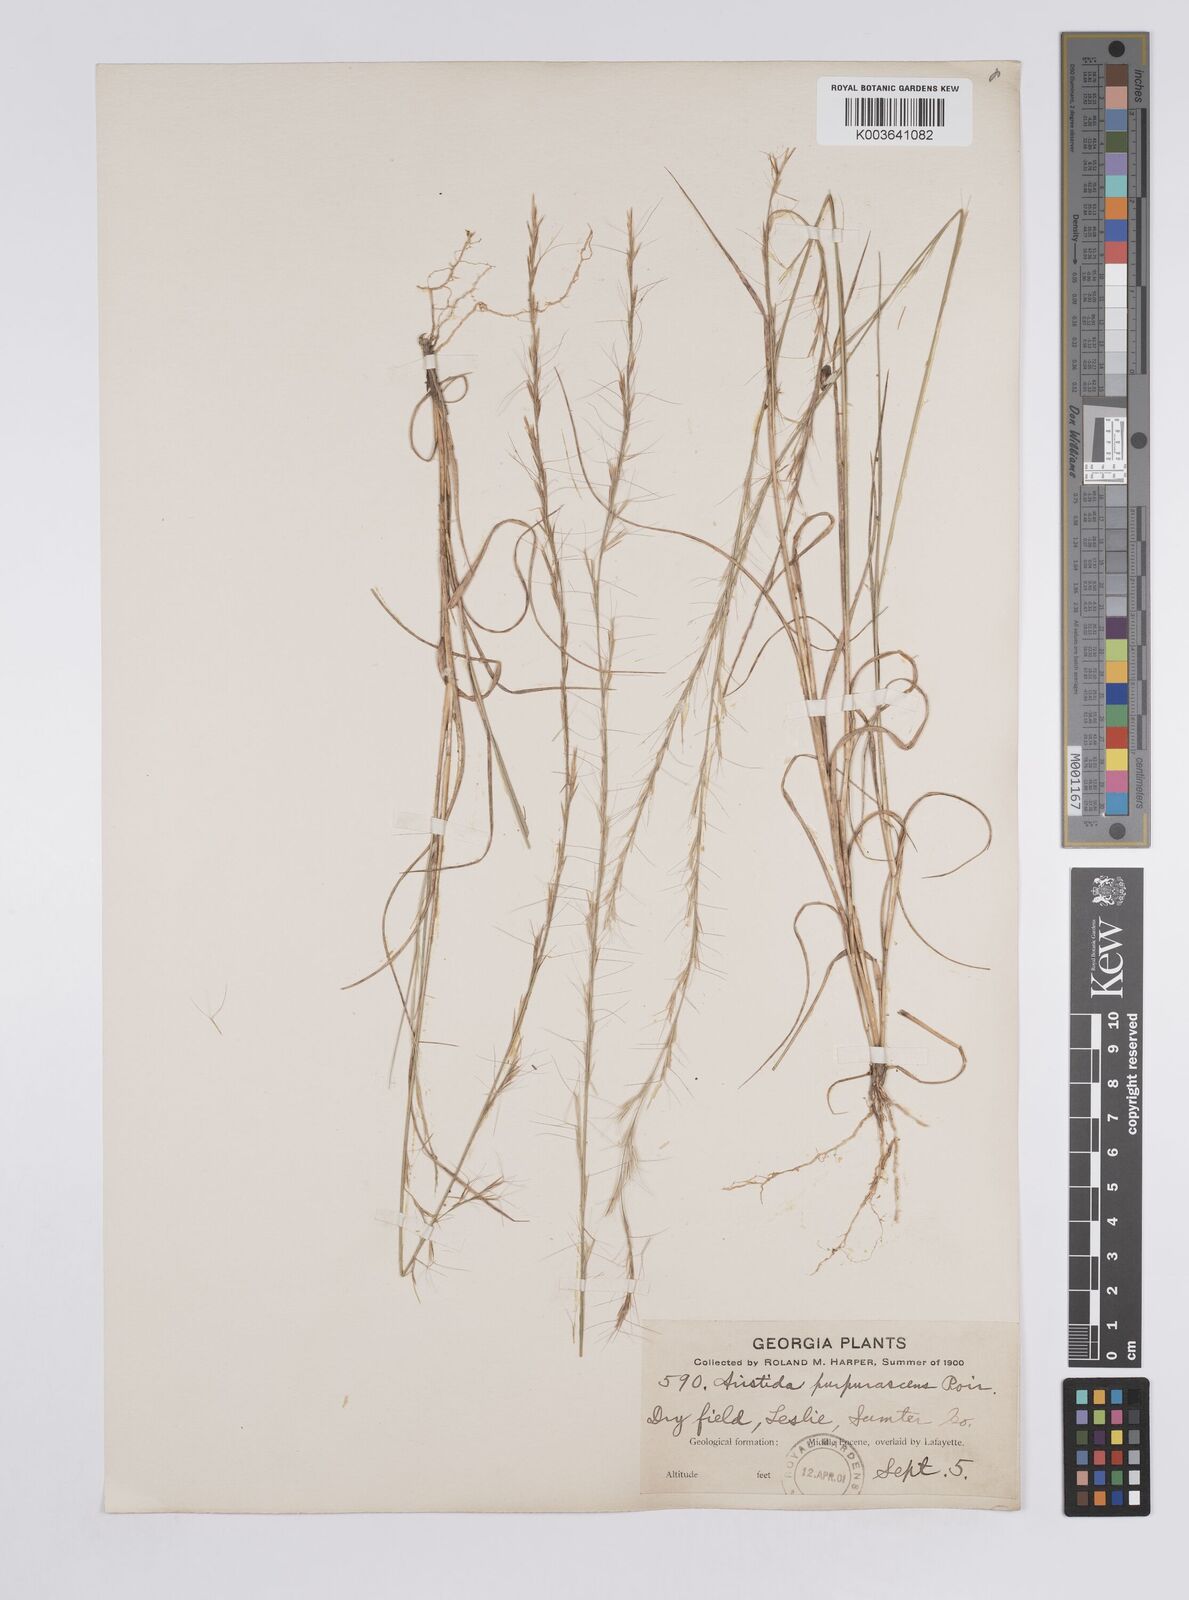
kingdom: Plantae
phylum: Tracheophyta
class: Liliopsida
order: Poales
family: Poaceae
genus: Aristida
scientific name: Aristida purpurascens
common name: Arrow-feather
